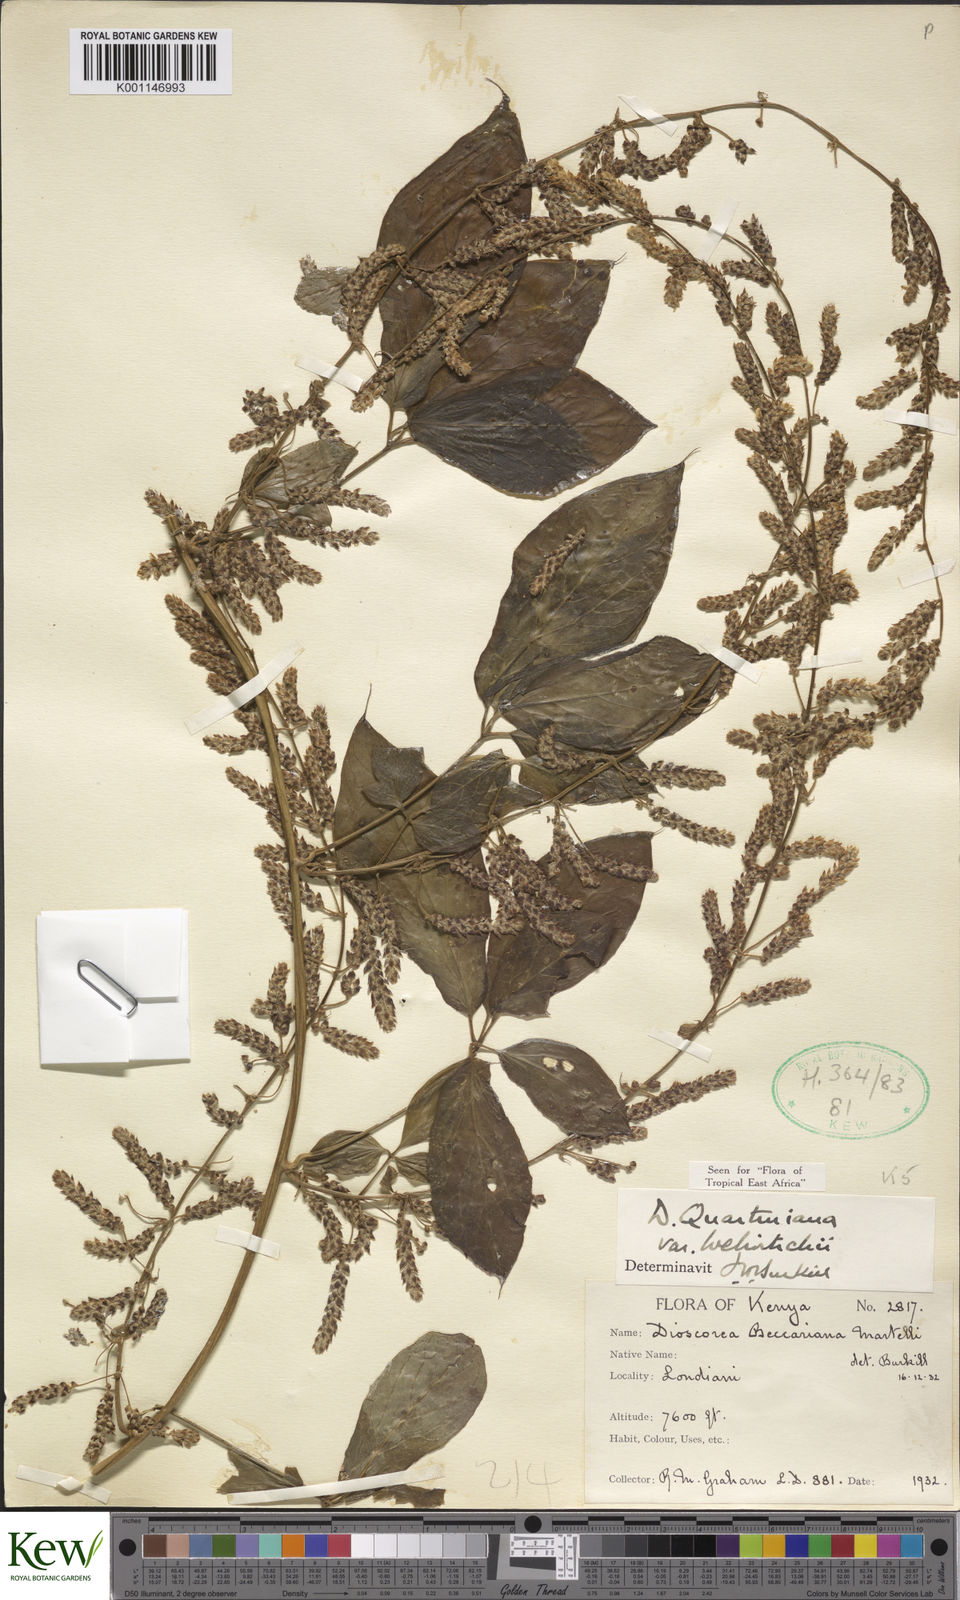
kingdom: Plantae
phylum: Tracheophyta
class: Liliopsida
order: Dioscoreales
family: Dioscoreaceae
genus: Dioscorea
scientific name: Dioscorea quartiniana
